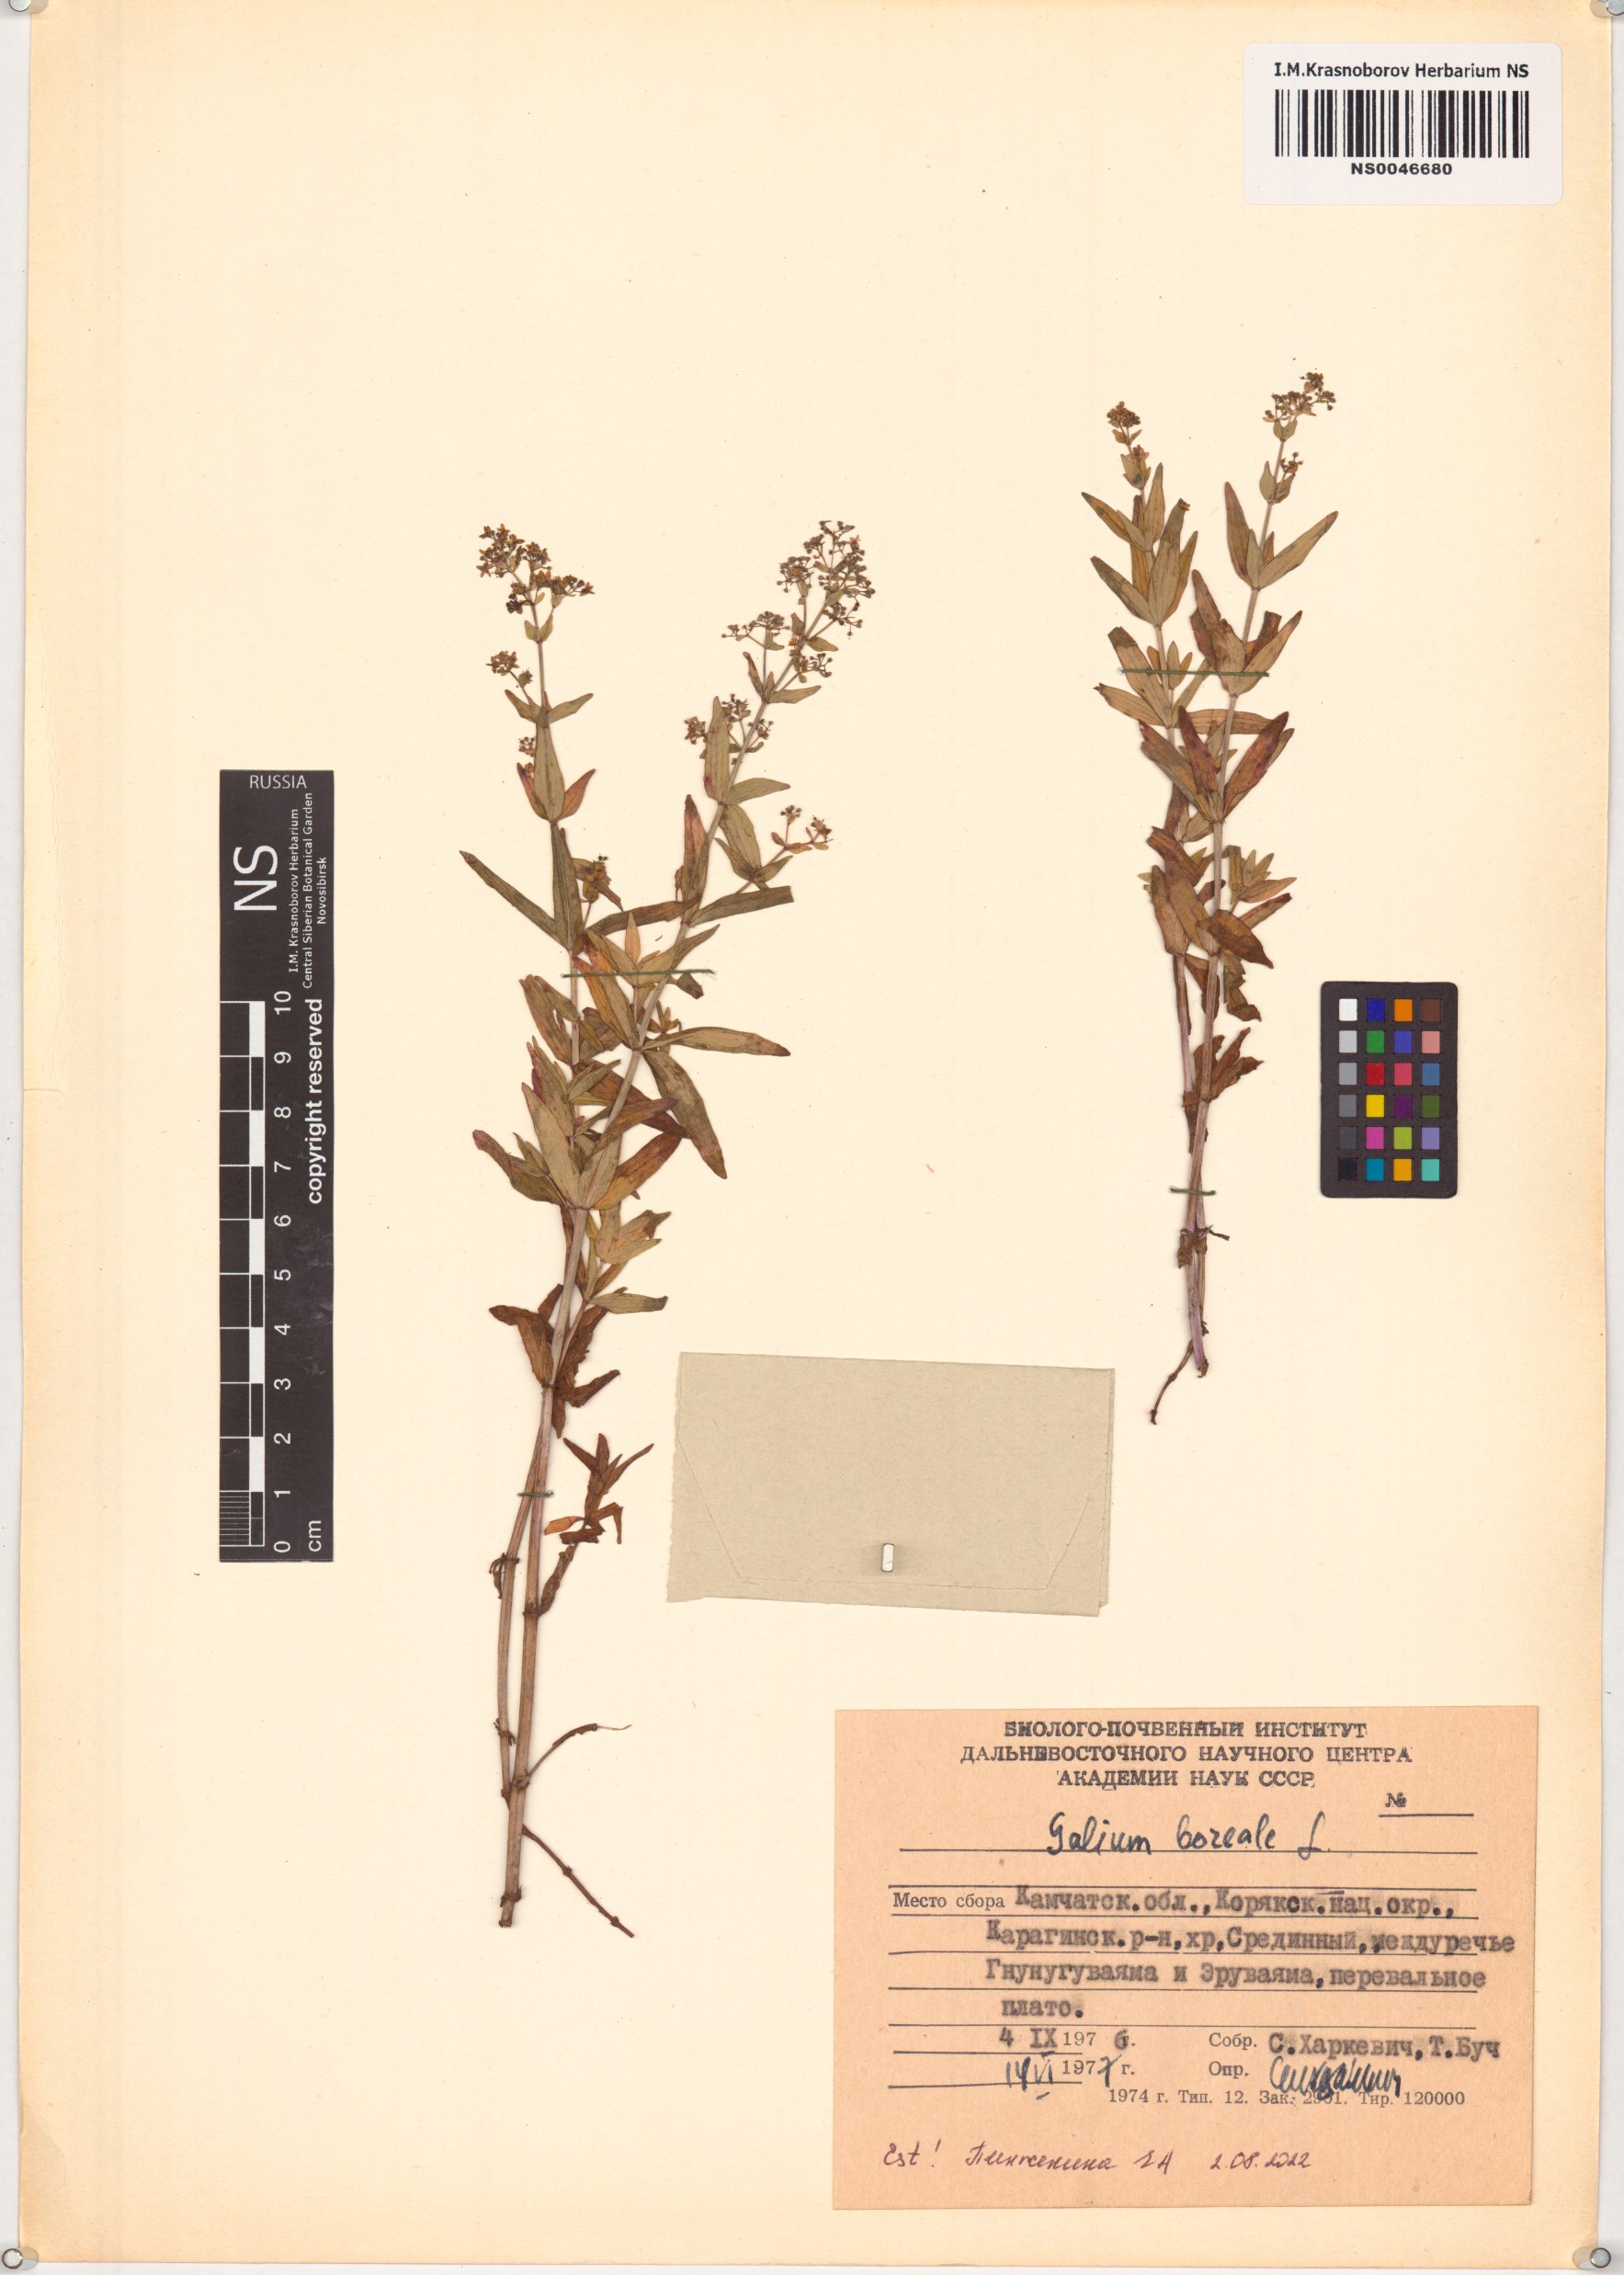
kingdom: Plantae
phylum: Tracheophyta
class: Magnoliopsida
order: Gentianales
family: Rubiaceae
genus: Galium
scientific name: Galium boreale
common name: Northern bedstraw
